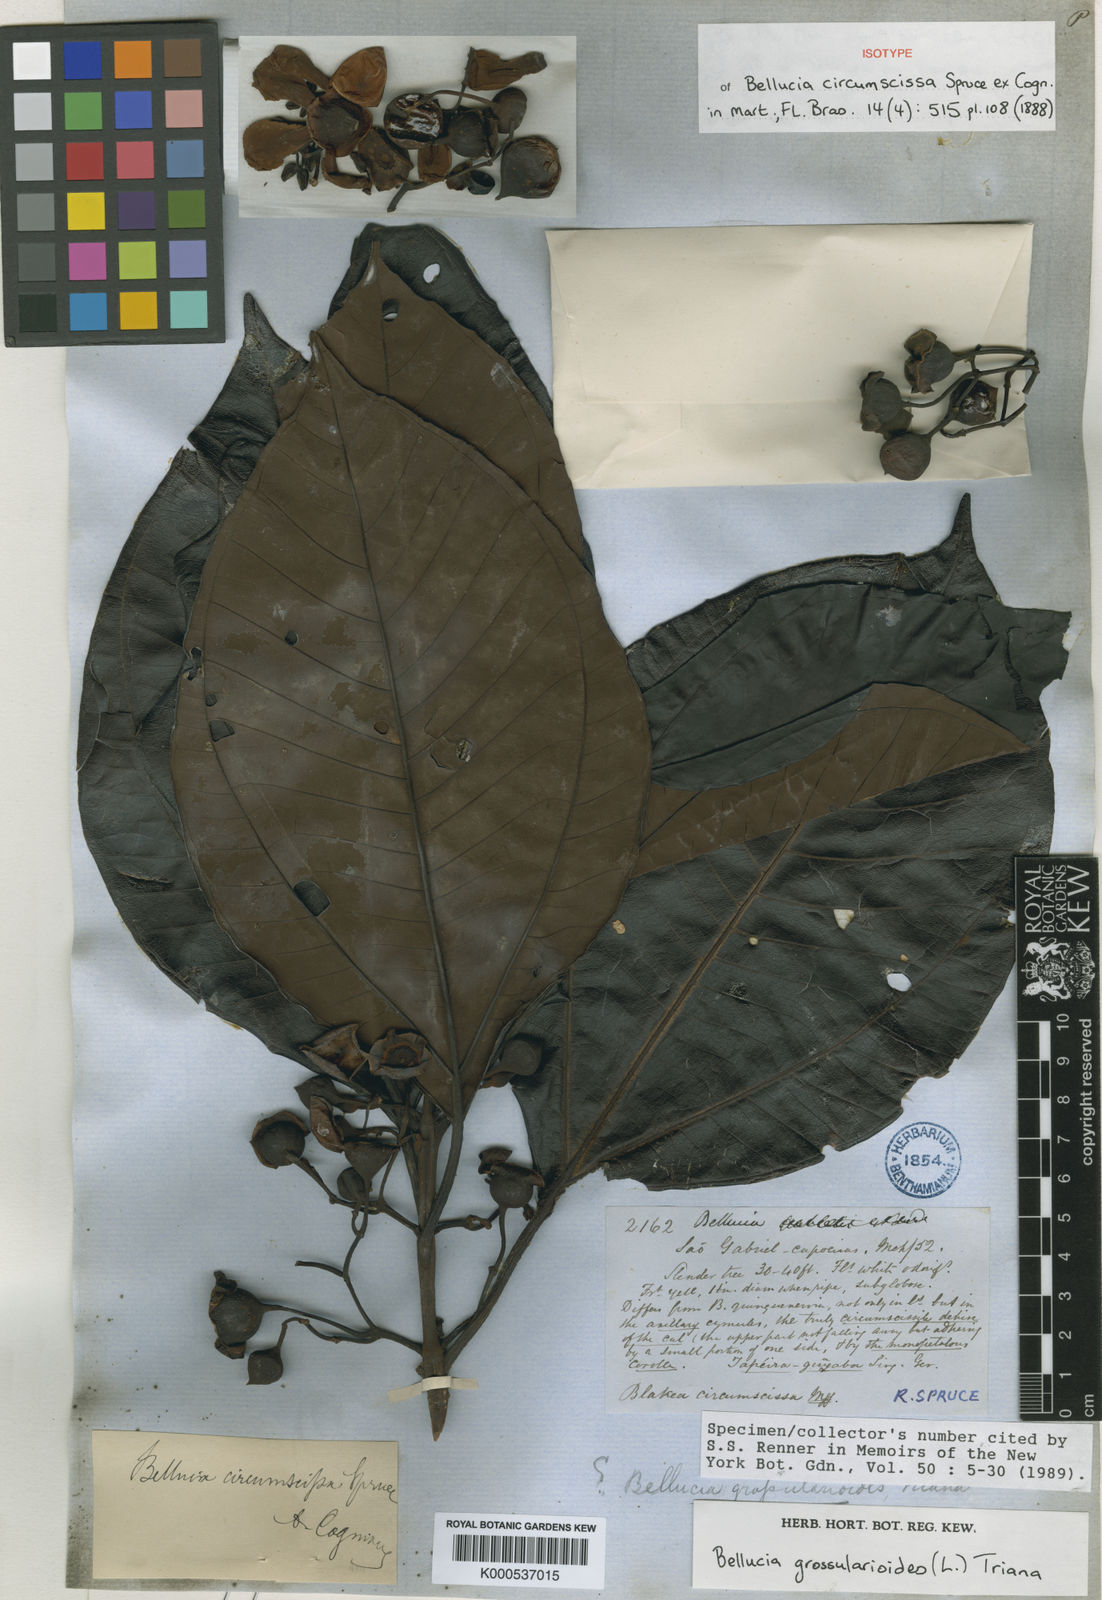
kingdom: Plantae
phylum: Tracheophyta
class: Magnoliopsida
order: Myrtales
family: Melastomataceae
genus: Bellucia
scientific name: Bellucia grossularioides
